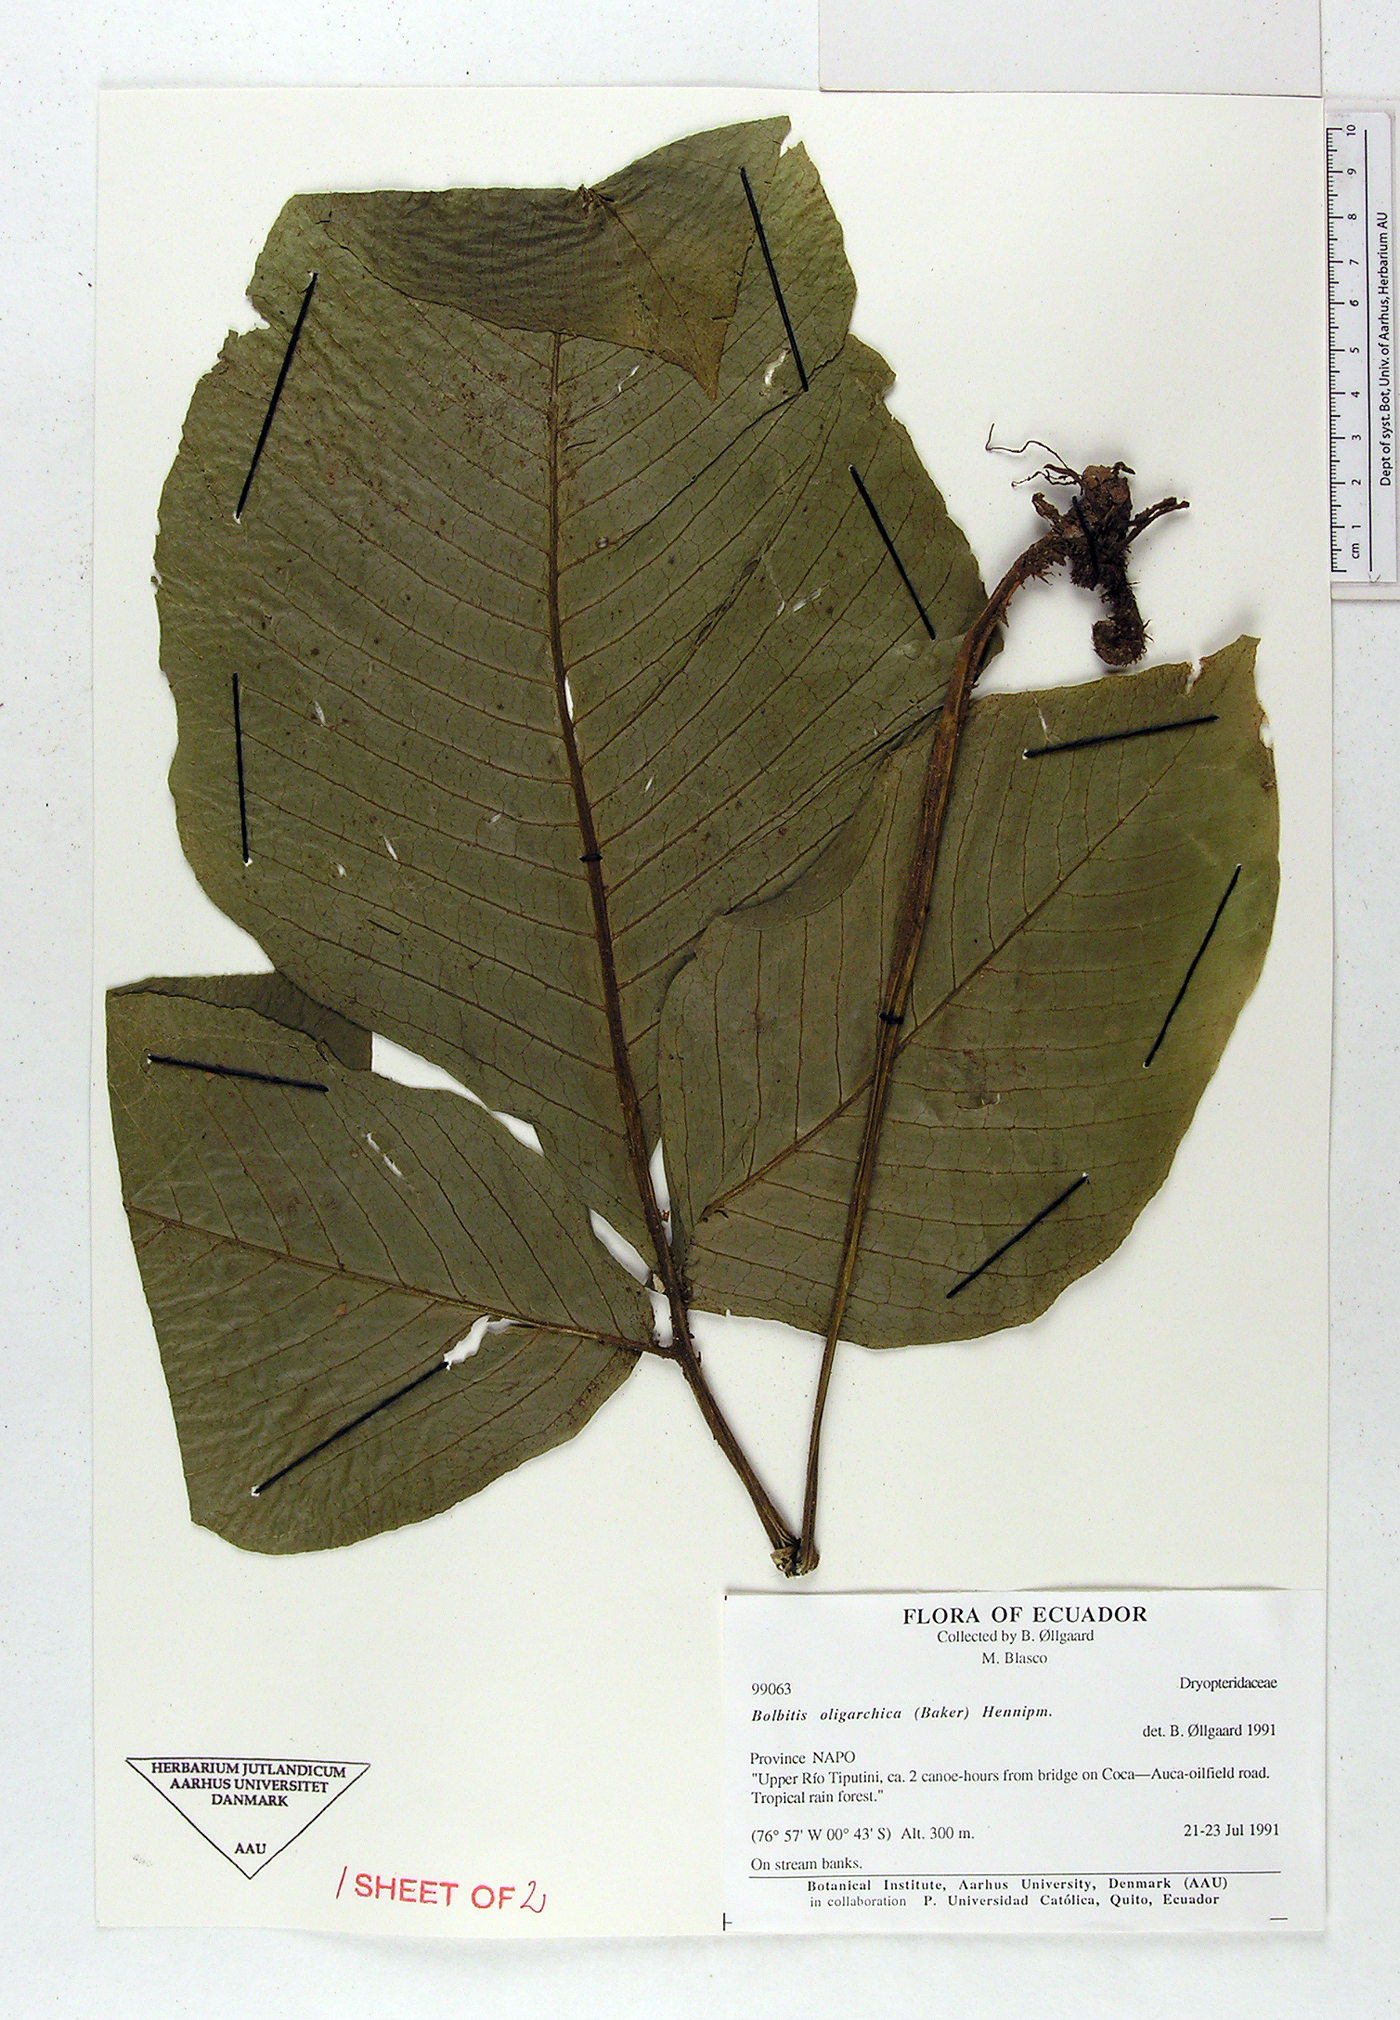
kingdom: Plantae
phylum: Tracheophyta
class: Polypodiopsida
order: Polypodiales
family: Dryopteridaceae
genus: Mickelia
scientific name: Mickelia oligarchica
